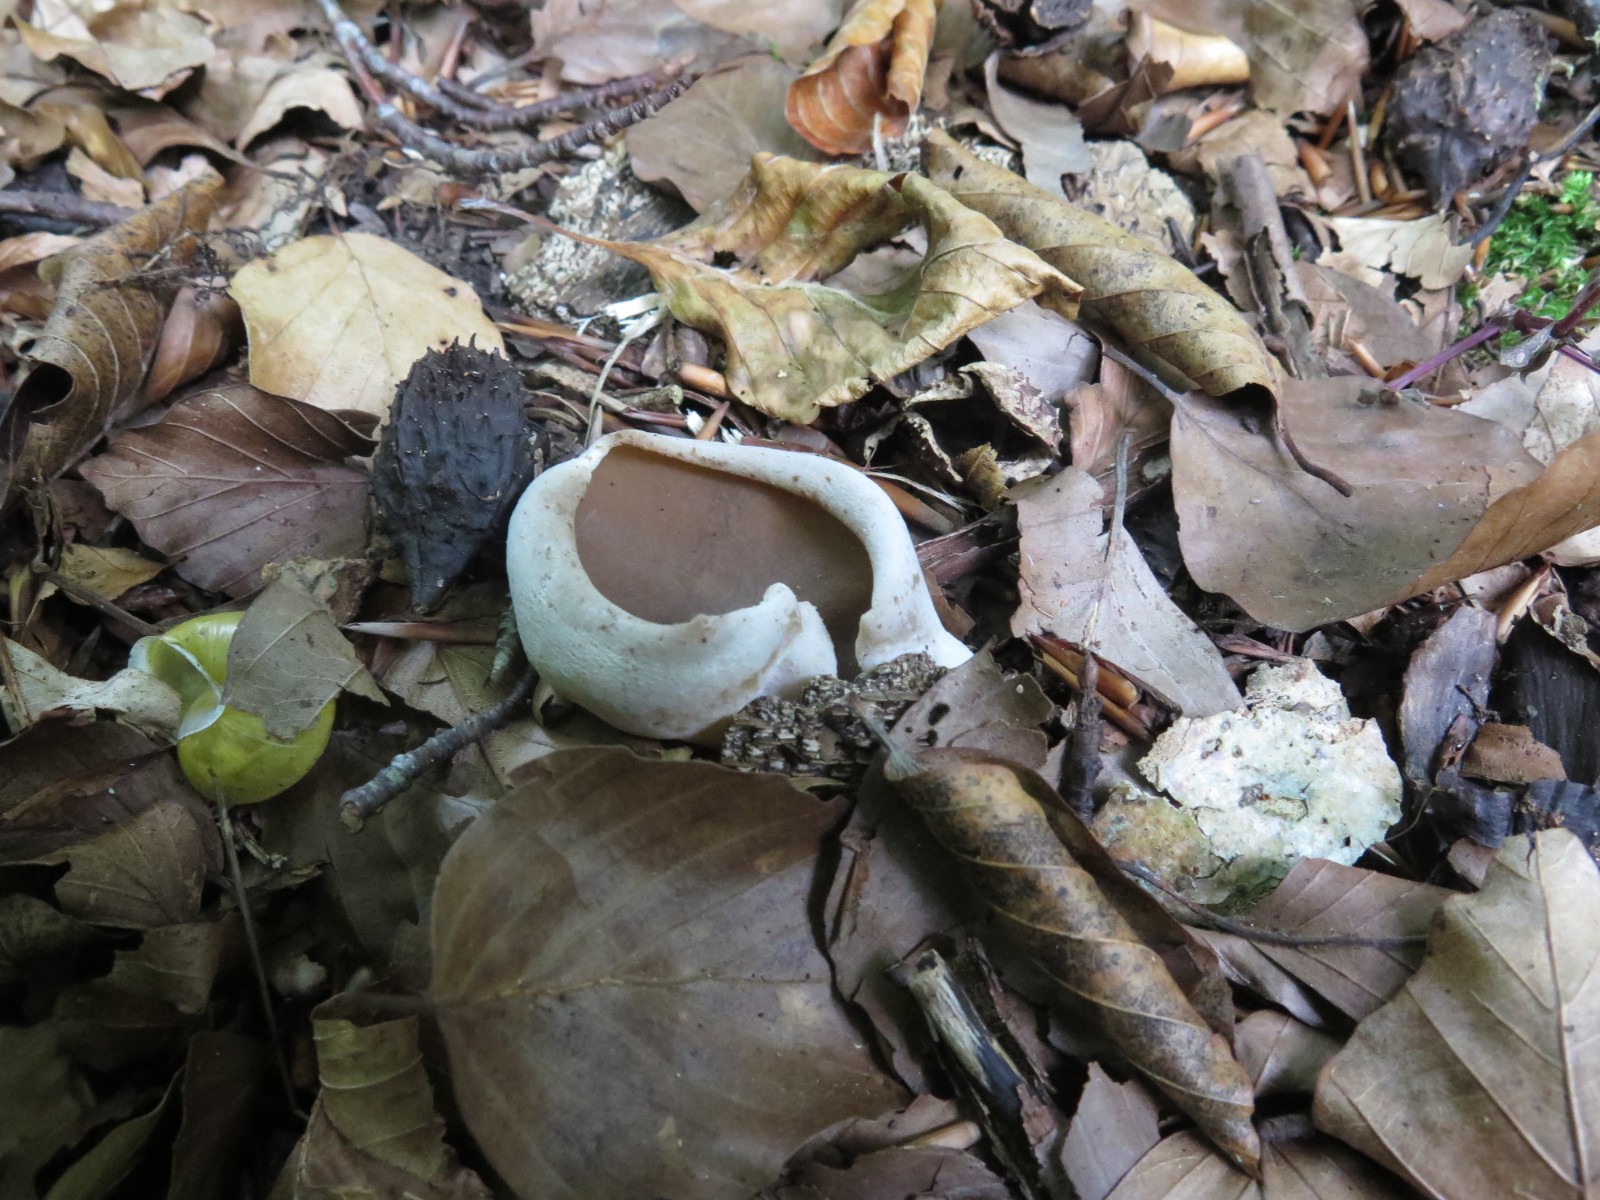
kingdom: Fungi
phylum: Ascomycota
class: Pezizomycetes
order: Pezizales
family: Pezizaceae
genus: Peziza
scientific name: Peziza
